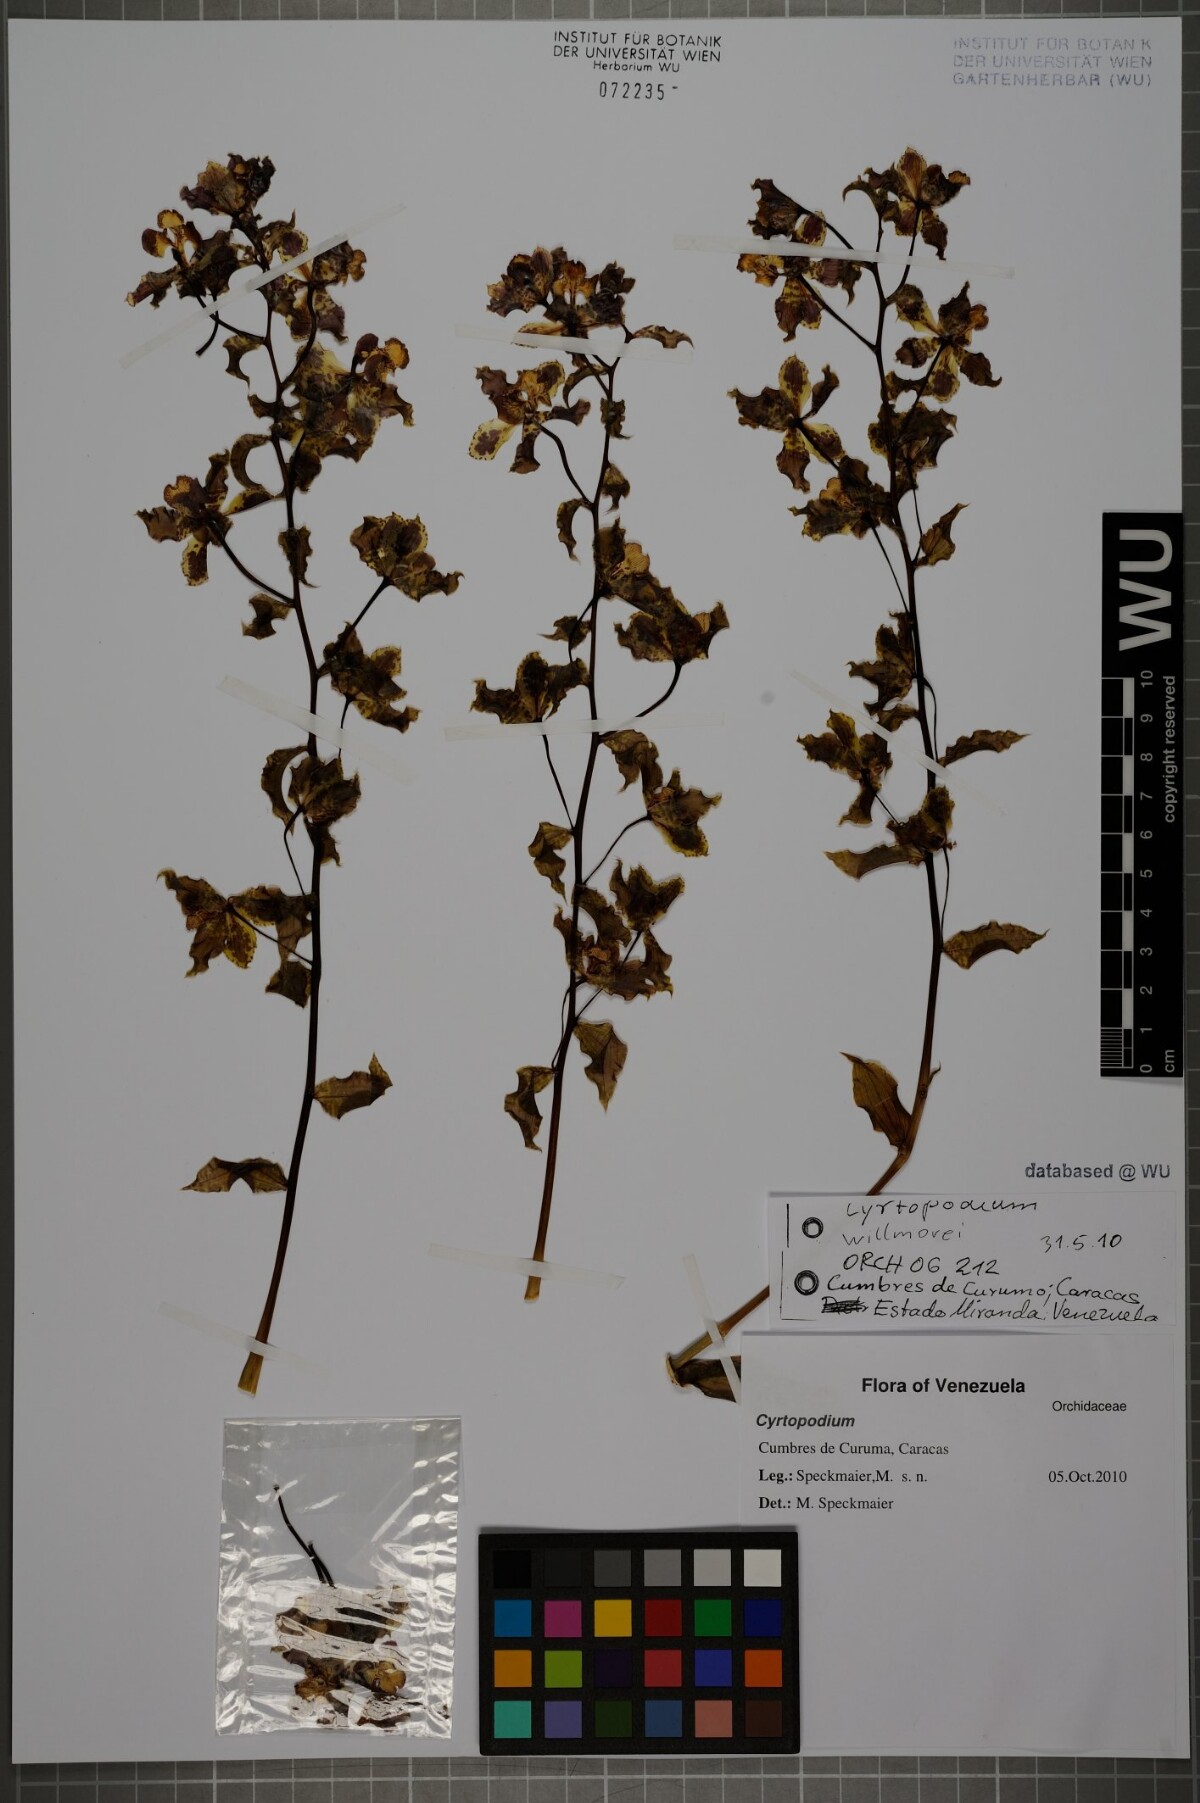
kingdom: Plantae
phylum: Tracheophyta
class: Liliopsida
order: Asparagales
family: Orchidaceae
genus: Cyrtopodium
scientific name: Cyrtopodium willmorei
